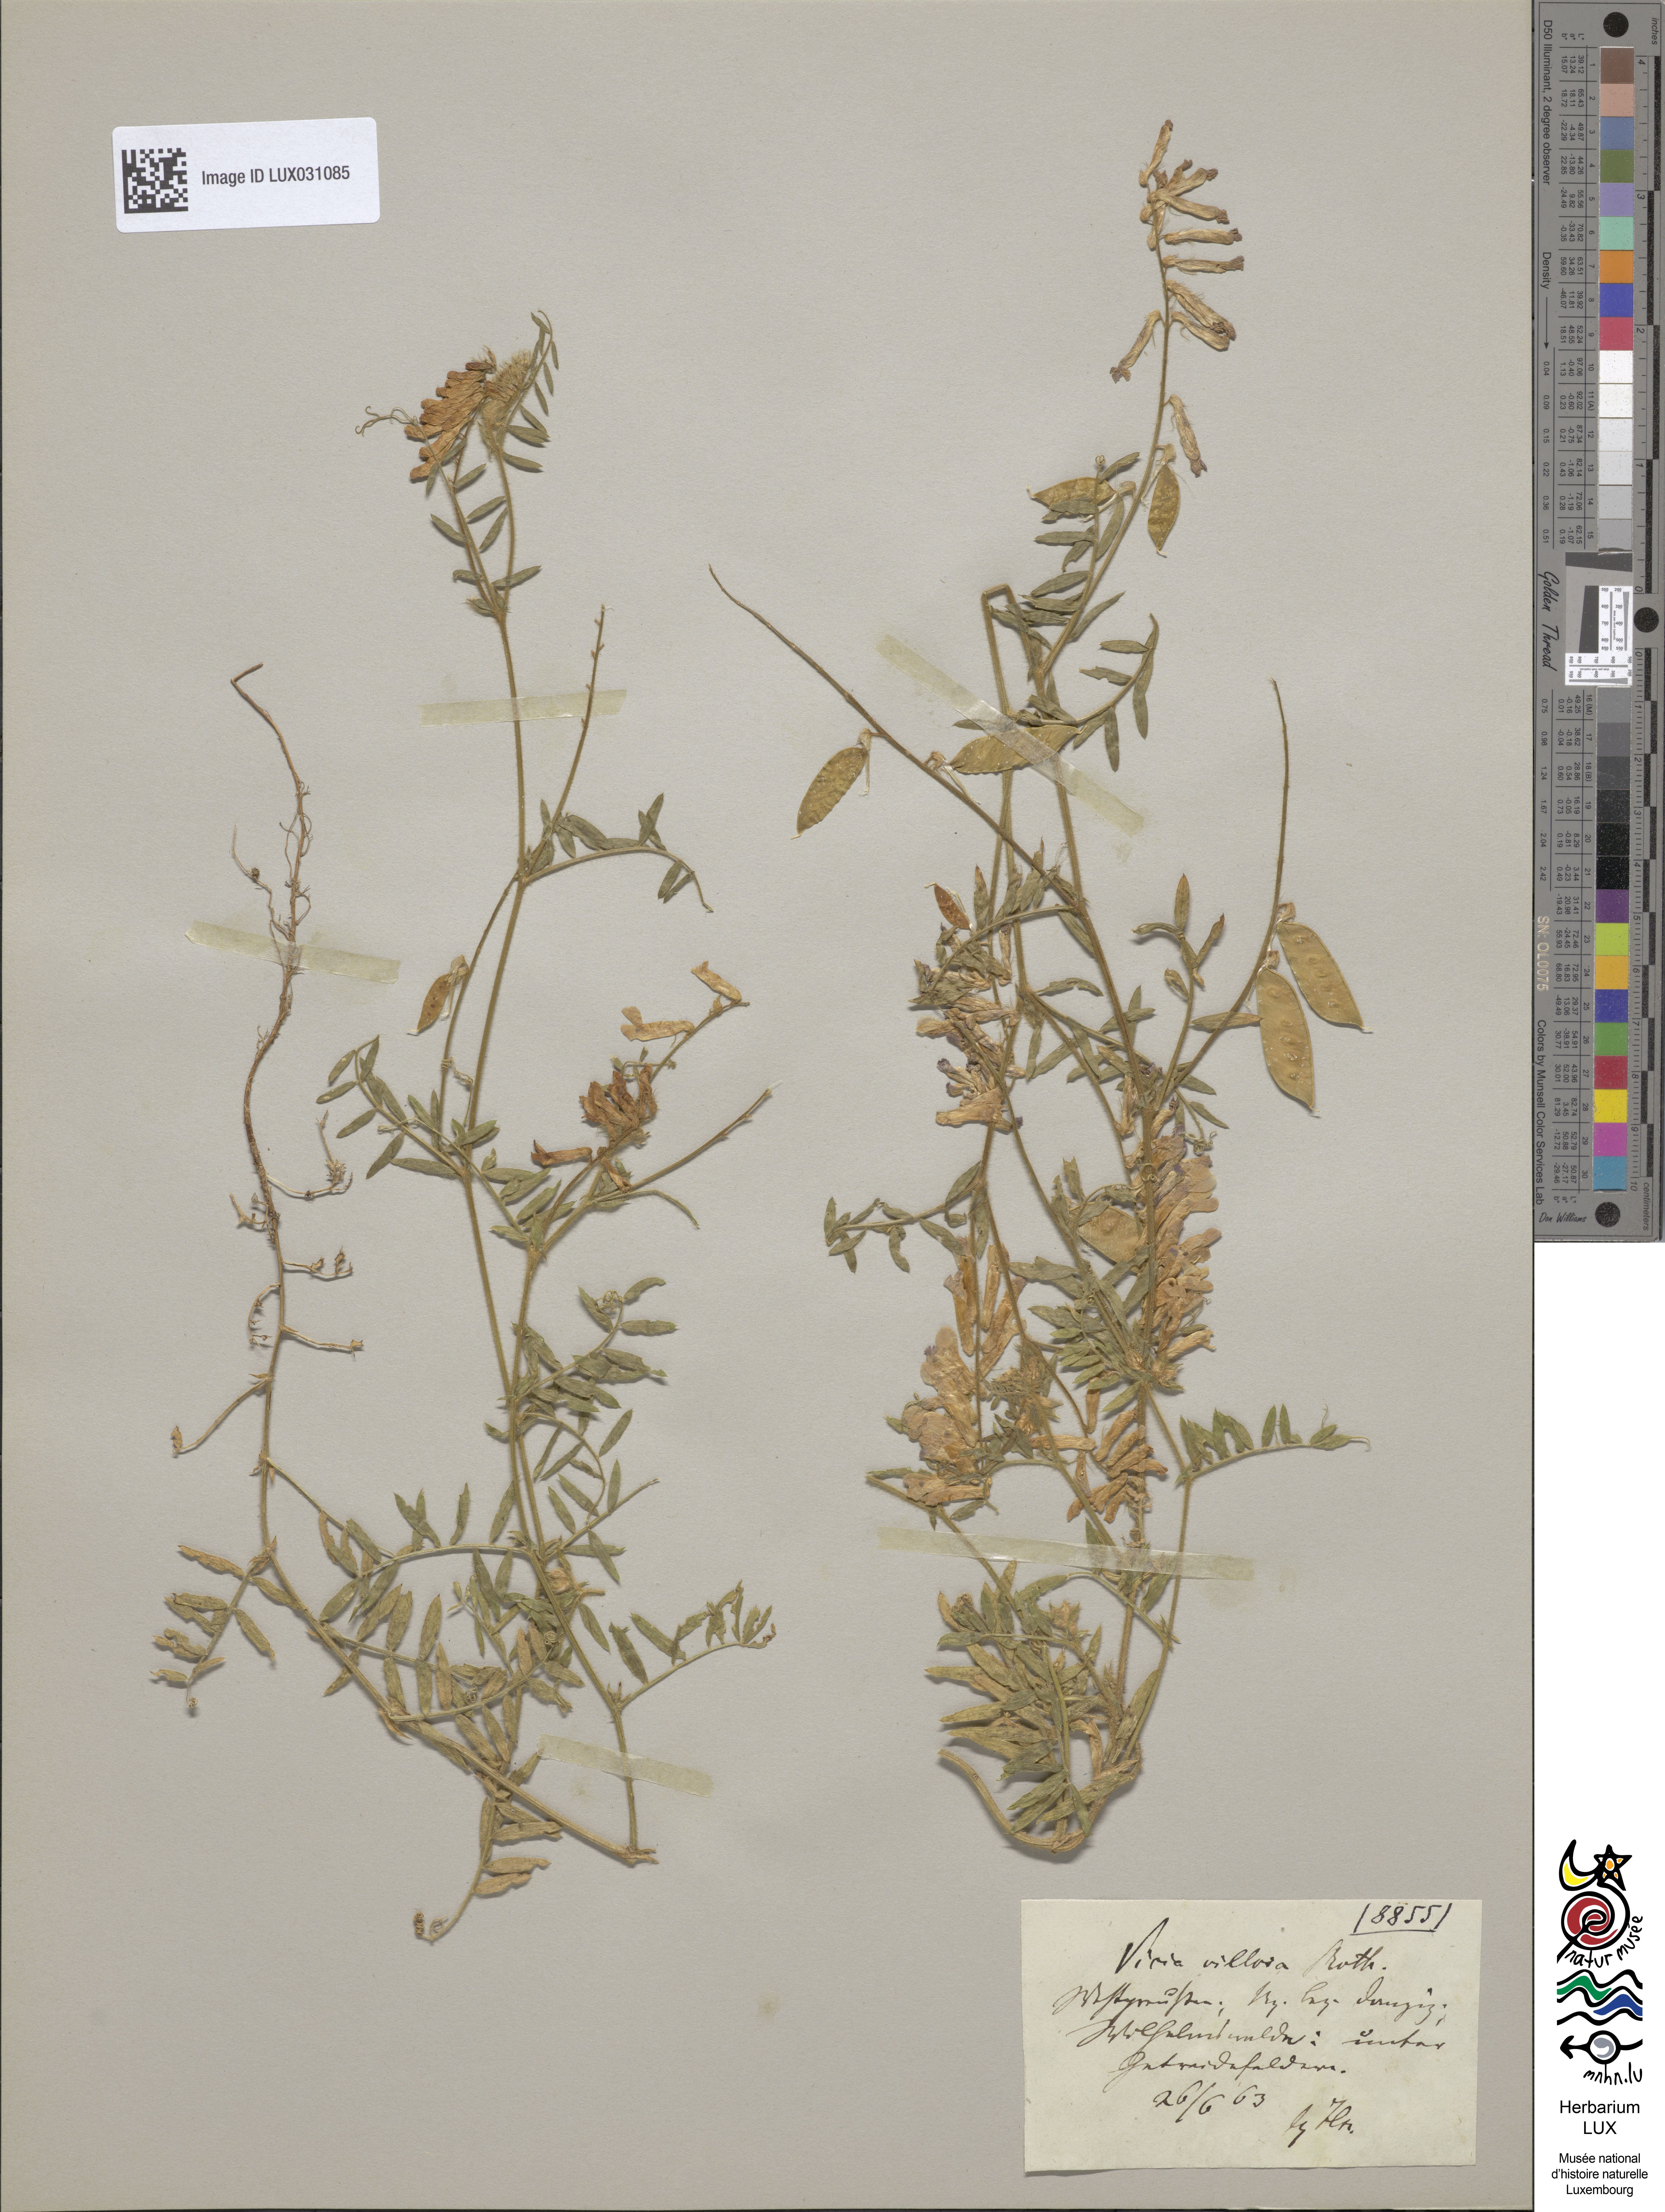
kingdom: Plantae
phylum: Tracheophyta
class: Magnoliopsida
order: Fabales
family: Fabaceae
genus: Vicia
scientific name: Vicia villosa
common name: Fodder vetch
